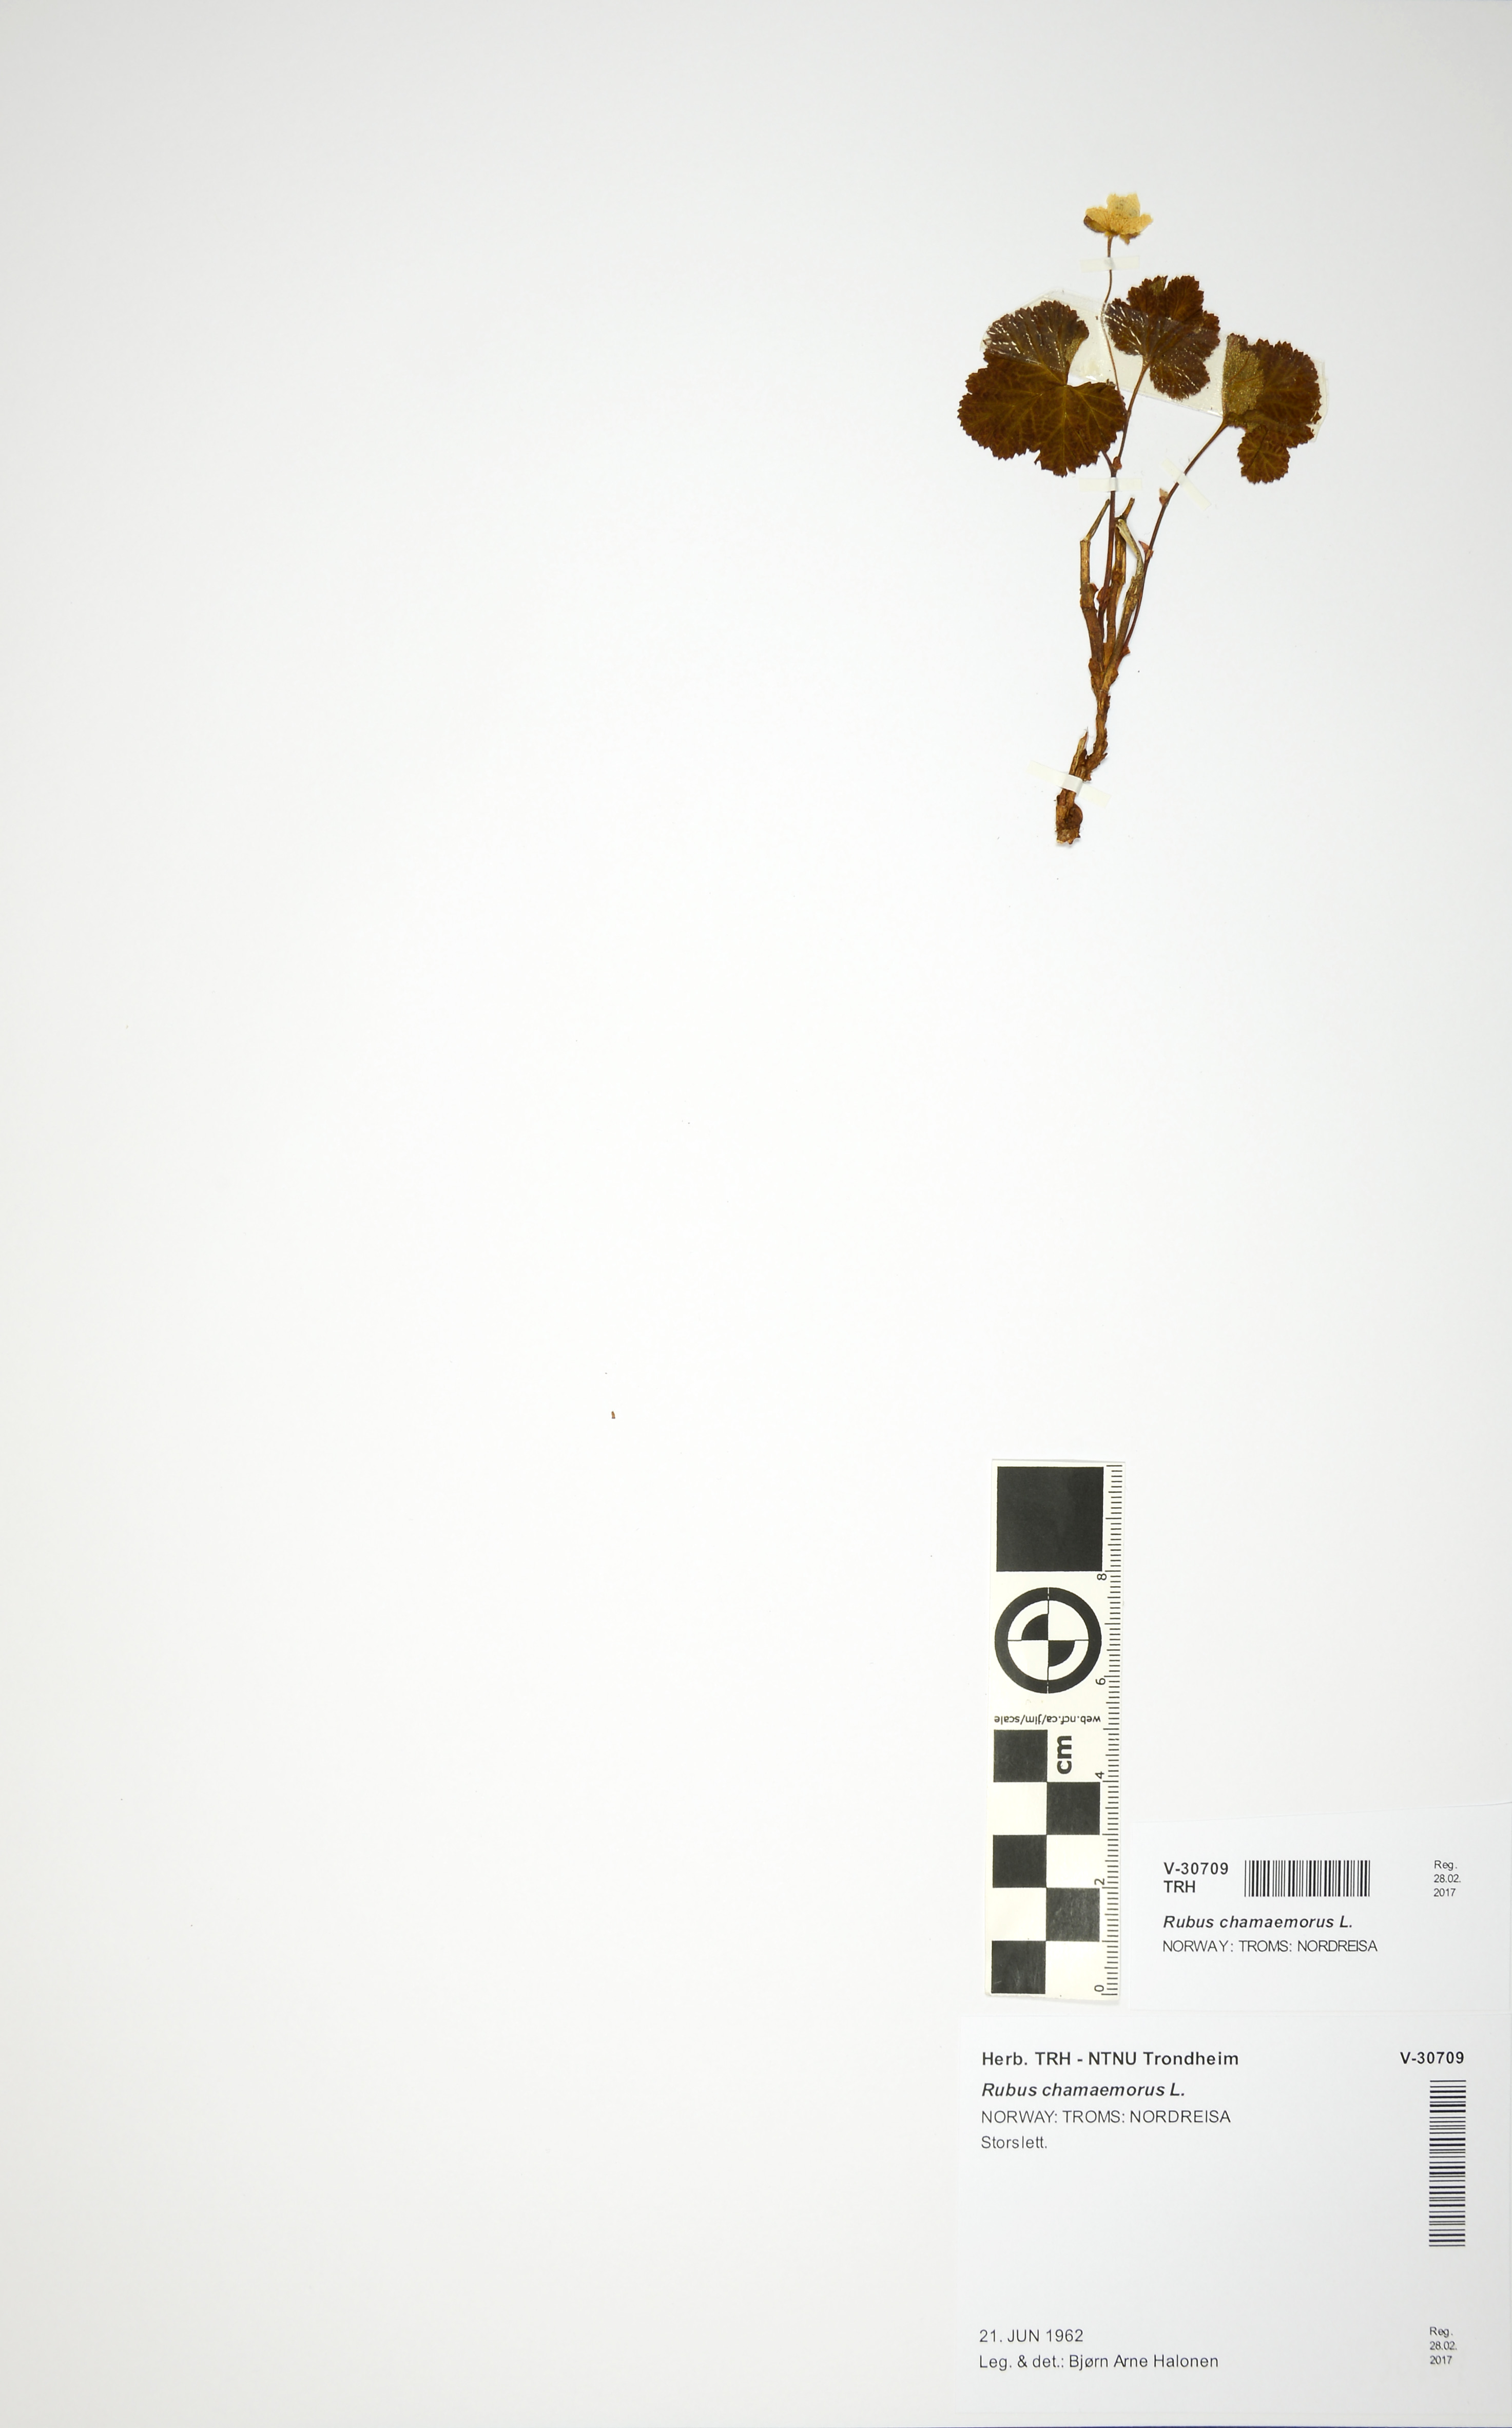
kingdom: Plantae
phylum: Tracheophyta
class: Magnoliopsida
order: Rosales
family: Rosaceae
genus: Rubus
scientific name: Rubus chamaemorus
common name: Cloudberry
